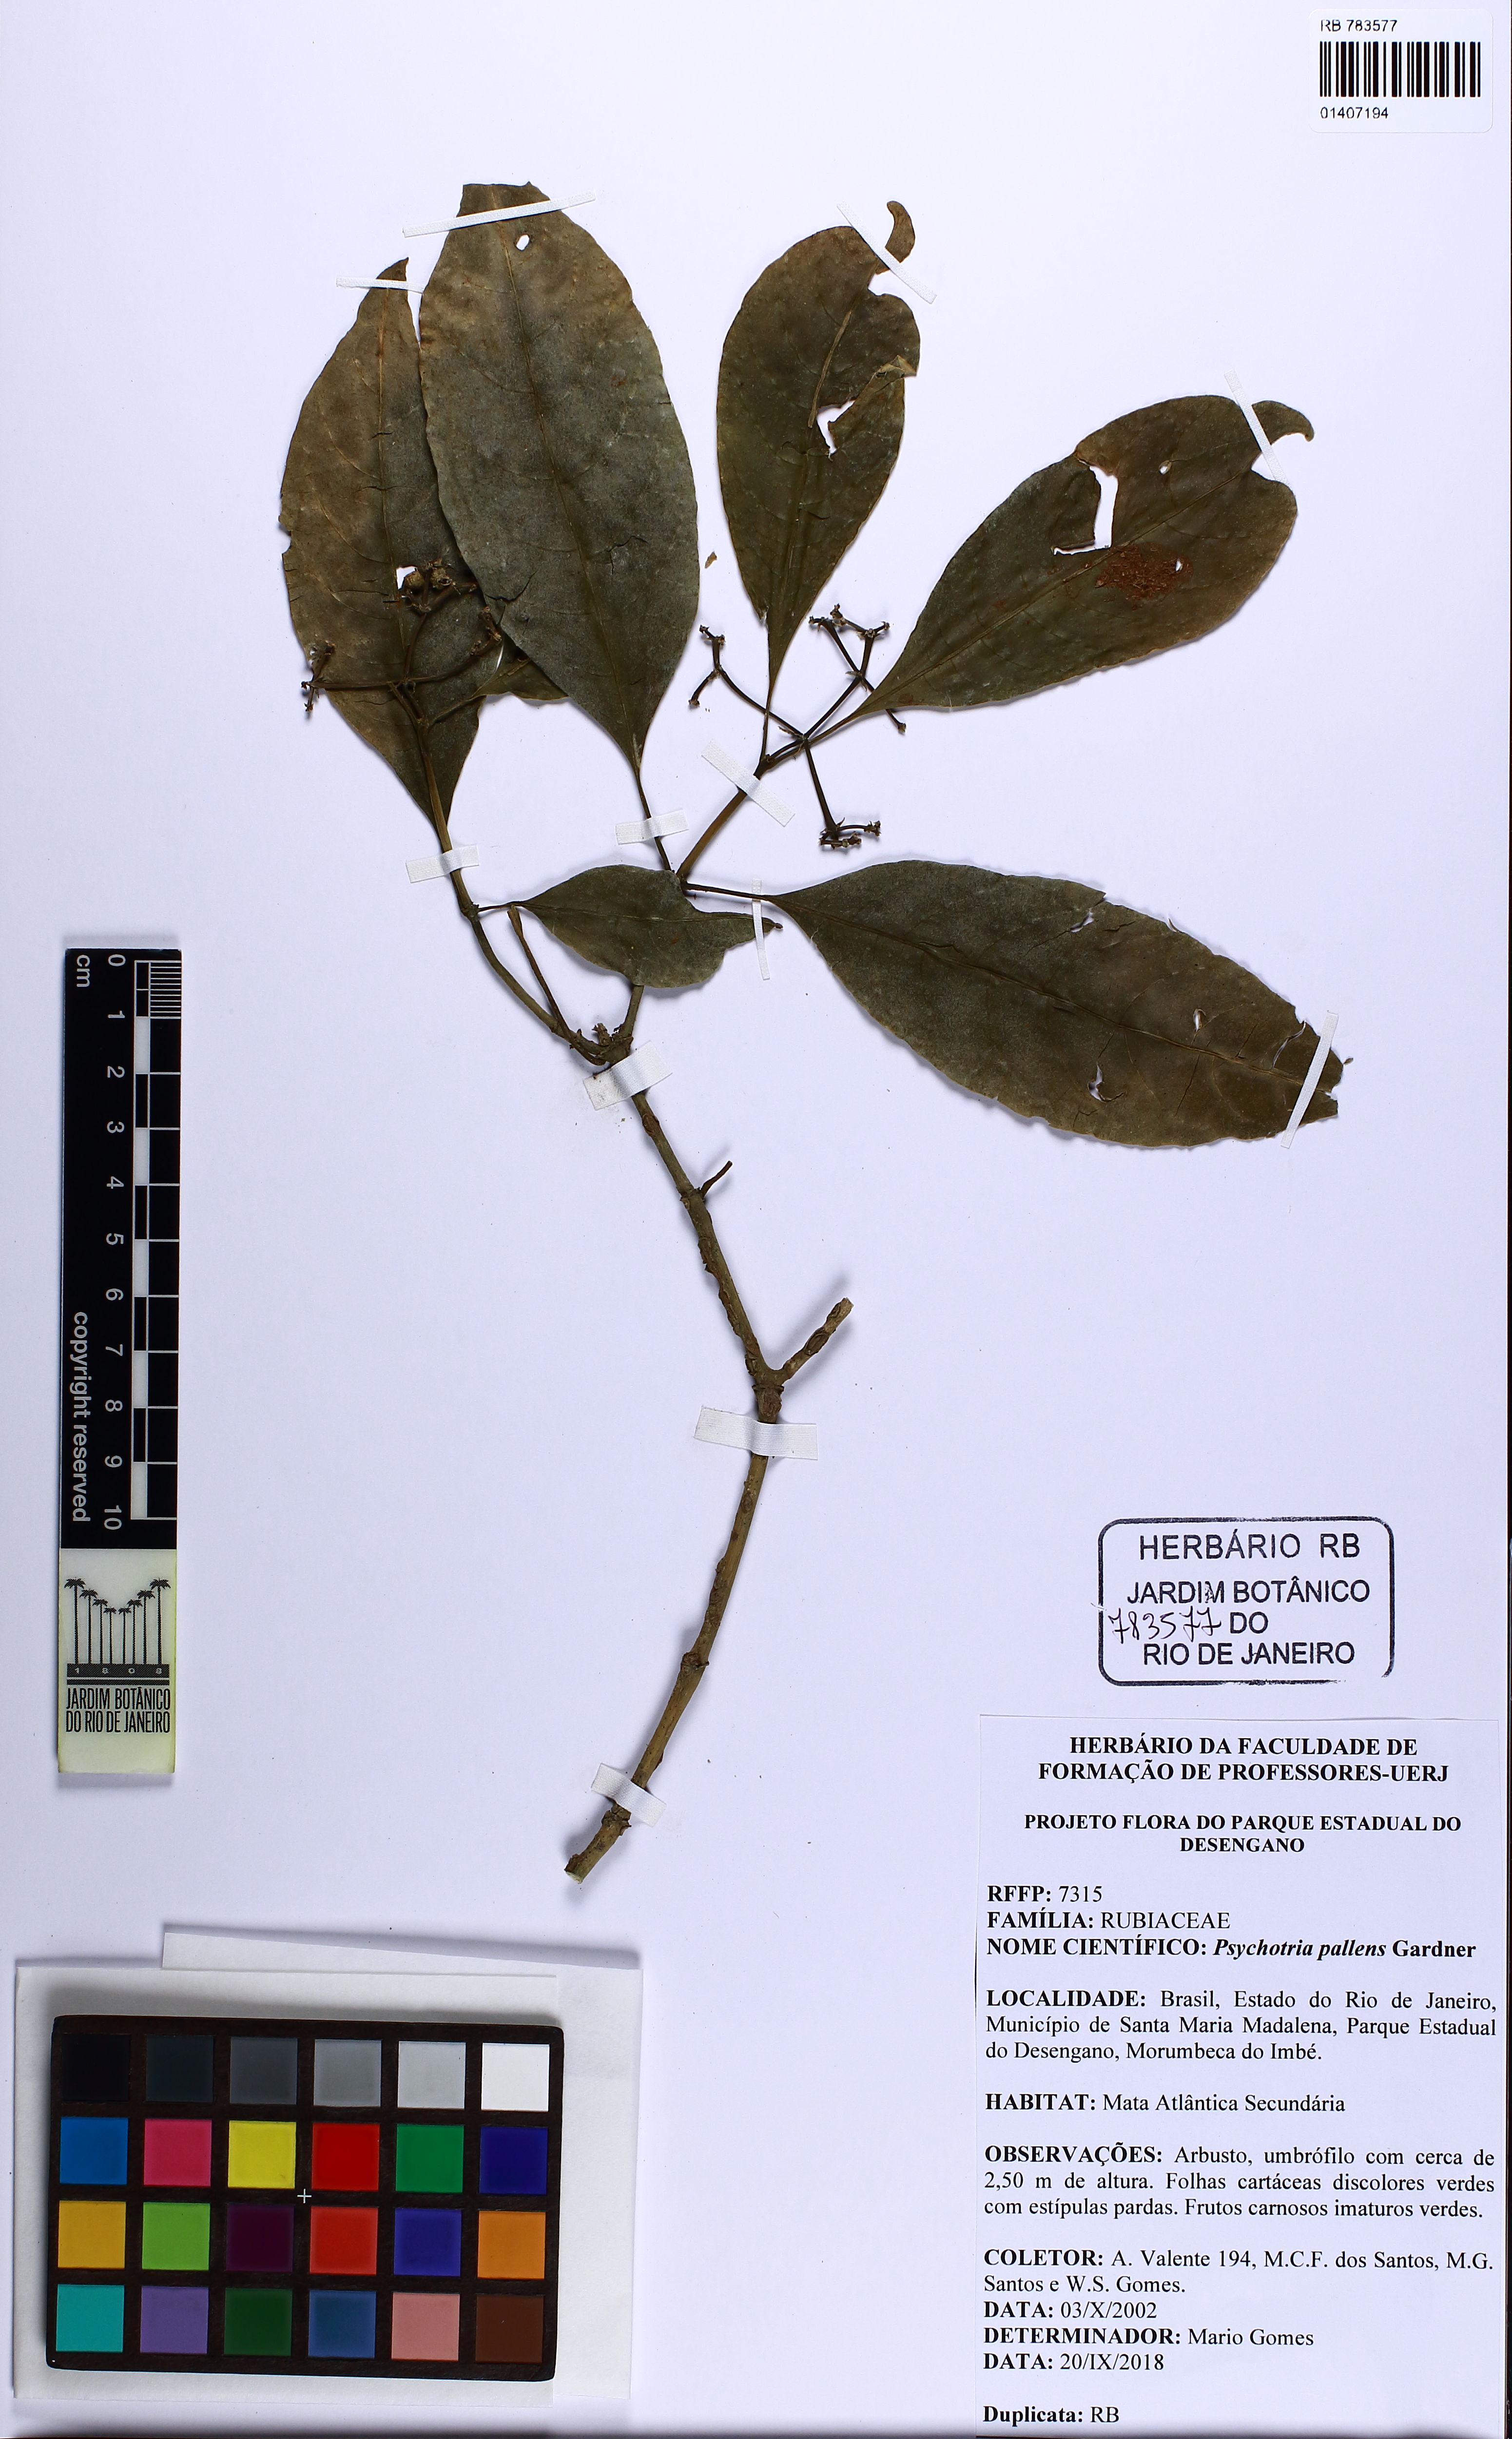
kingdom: Plantae
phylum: Tracheophyta
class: Magnoliopsida
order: Gentianales
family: Rubiaceae
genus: Psychotria
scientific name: Psychotria pallens
